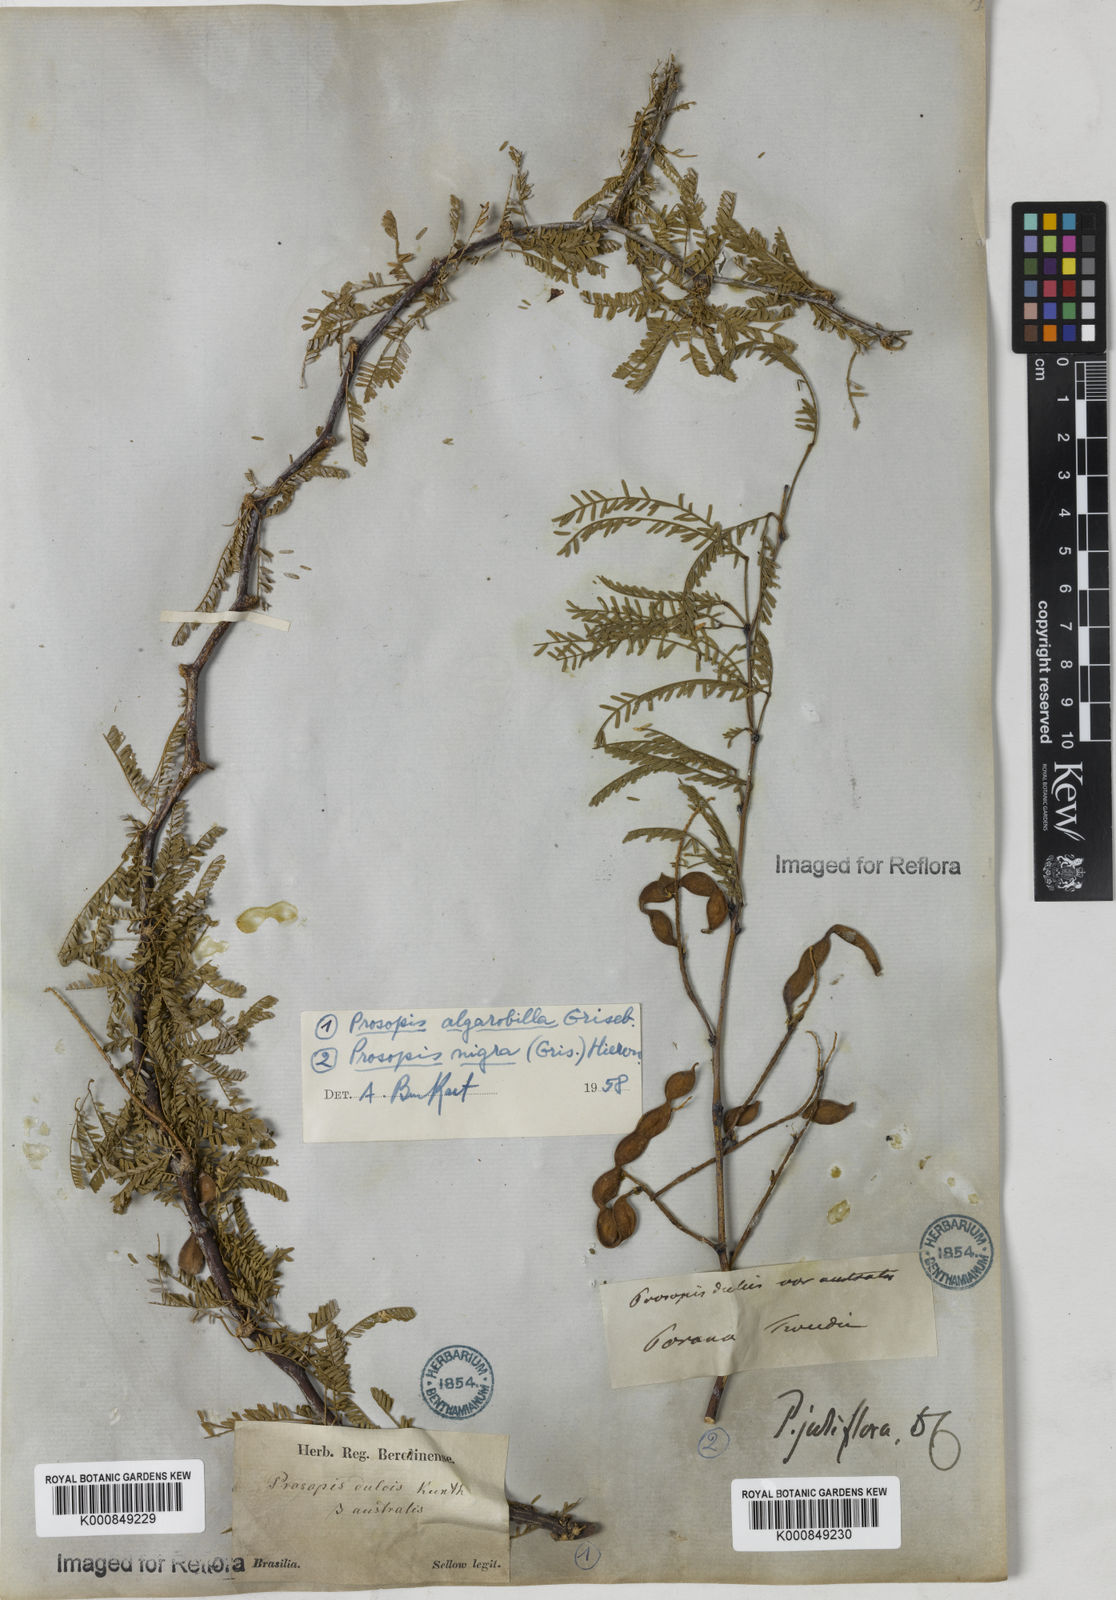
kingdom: Plantae
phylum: Tracheophyta
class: Magnoliopsida
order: Fabales
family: Fabaceae
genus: Prosopis
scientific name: Prosopis juliflora
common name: Mesquite
